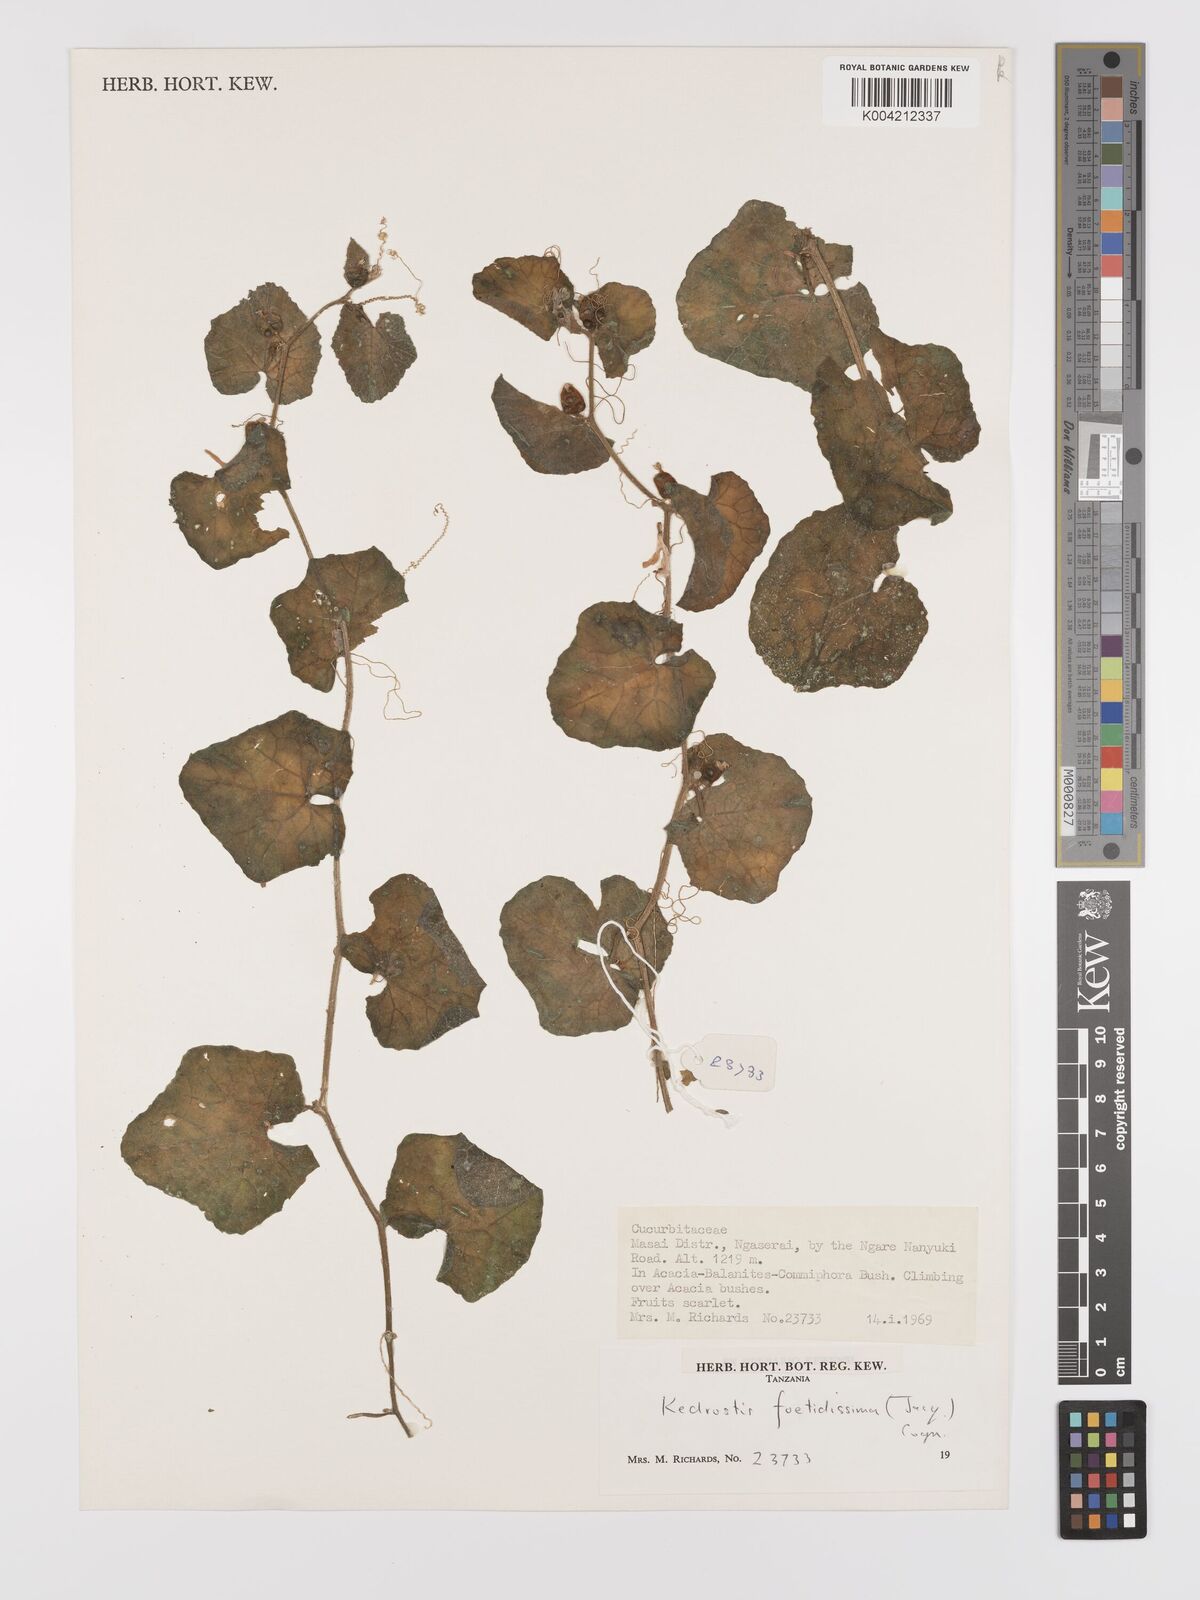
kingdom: Plantae
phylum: Tracheophyta
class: Magnoliopsida
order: Cucurbitales
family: Cucurbitaceae
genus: Kedrostis
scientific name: Kedrostis foetidissima
